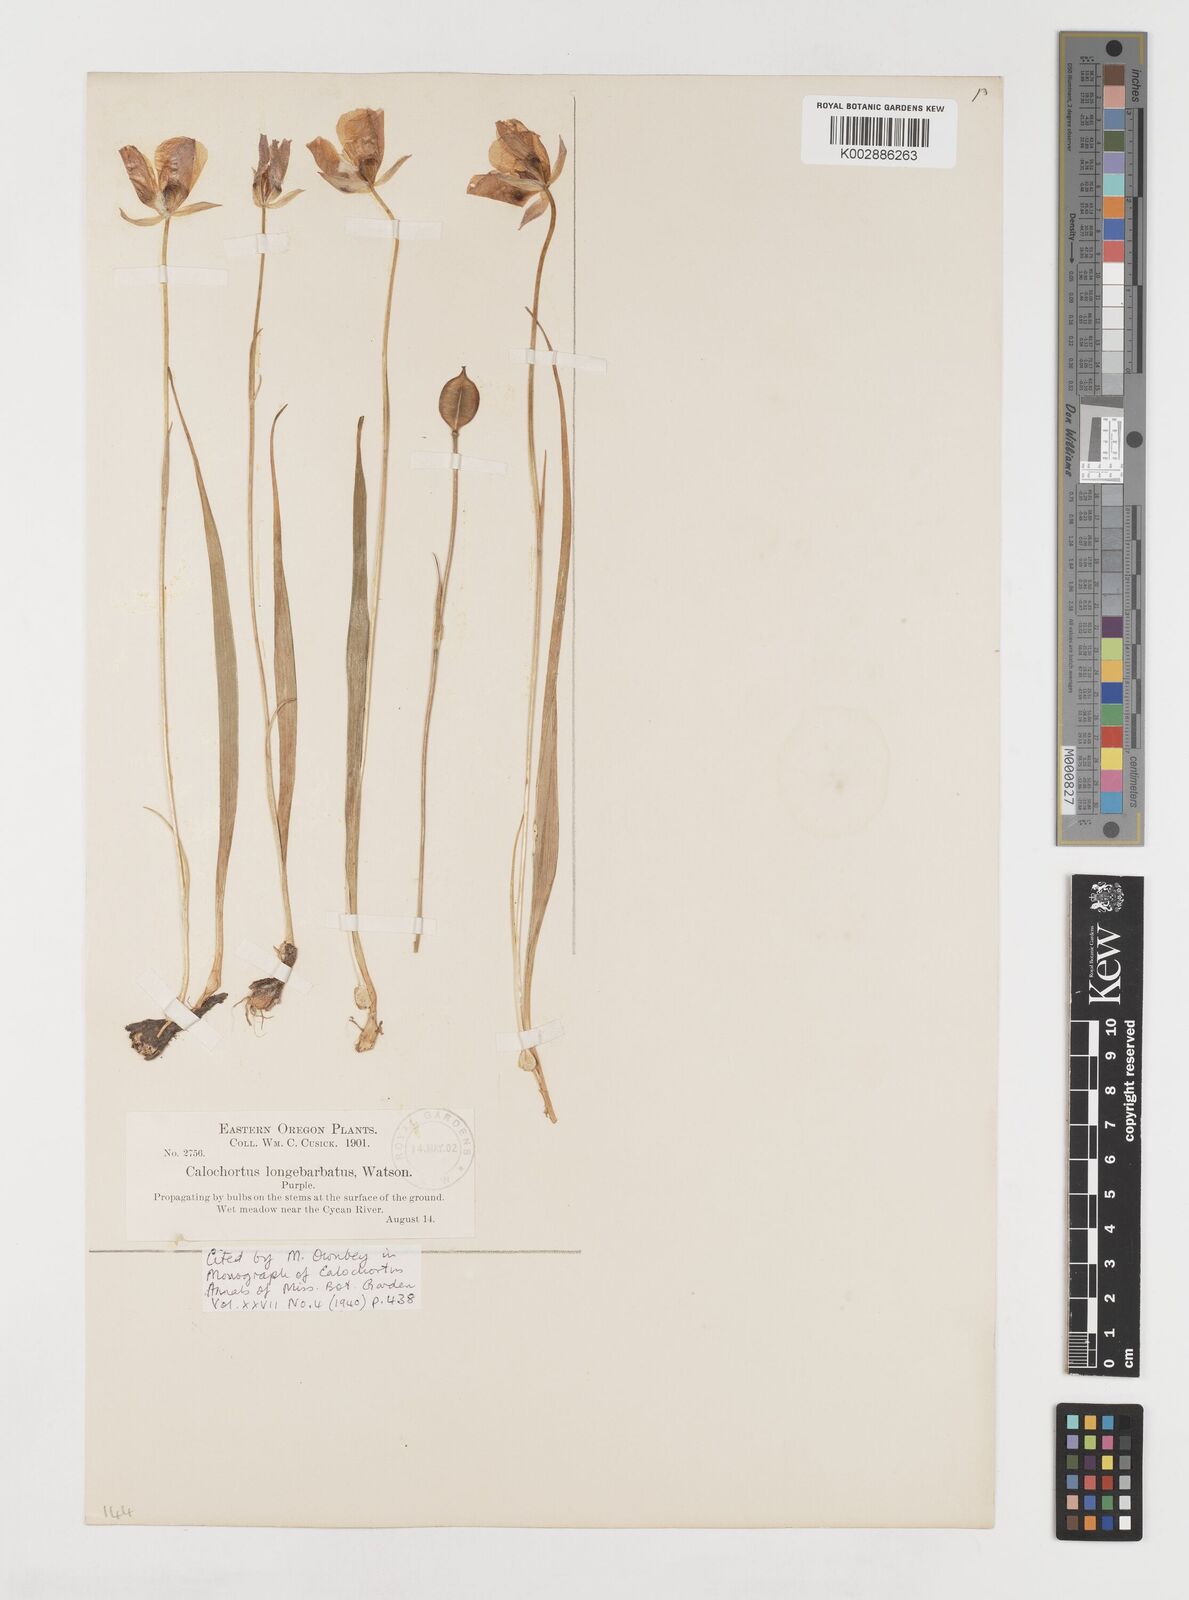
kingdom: Plantae
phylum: Tracheophyta
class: Liliopsida
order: Liliales
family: Liliaceae
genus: Calochortus
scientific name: Calochortus longibarbatus
